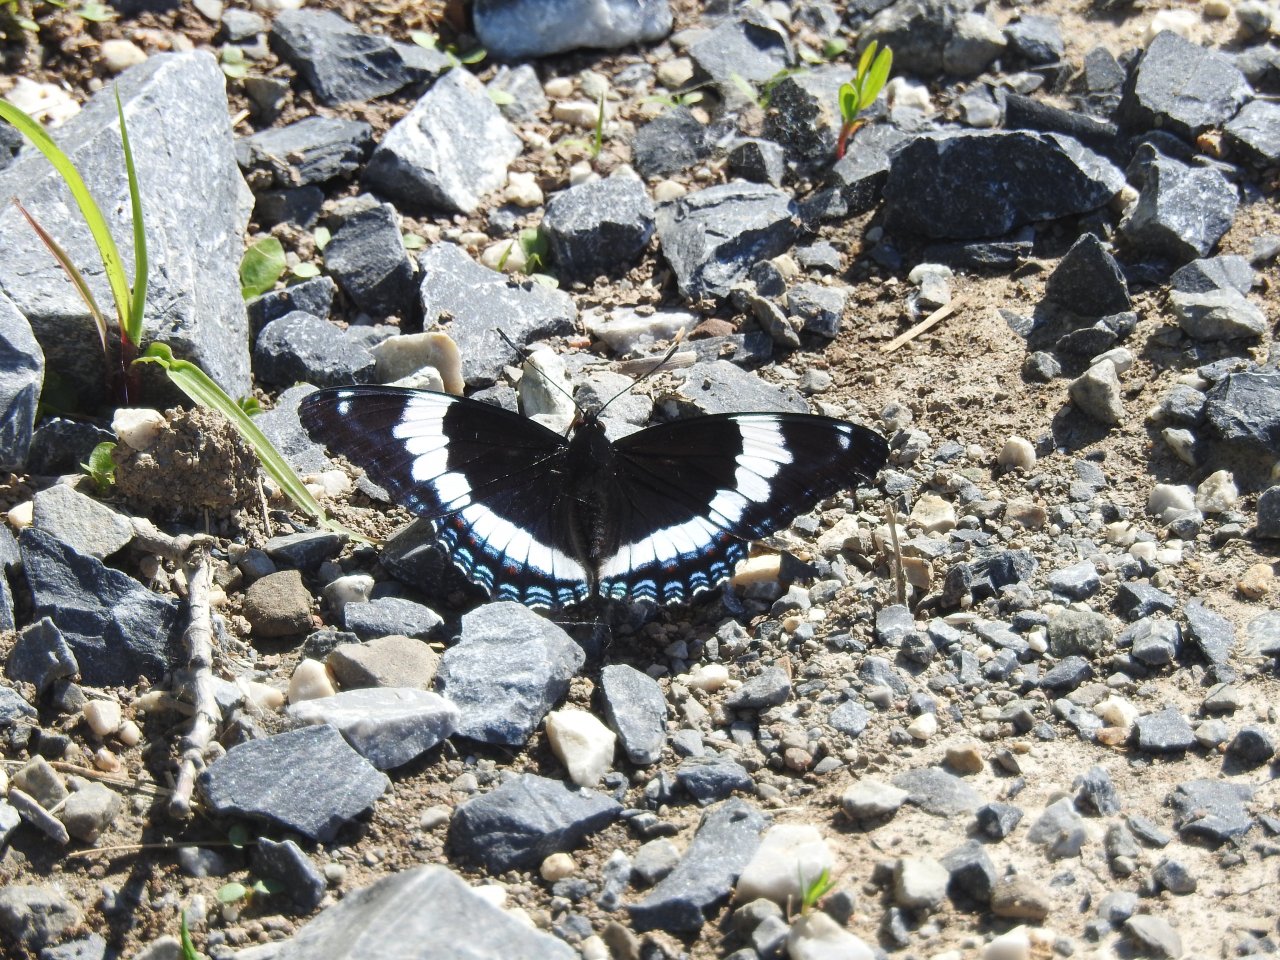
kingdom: Animalia
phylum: Arthropoda
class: Insecta
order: Lepidoptera
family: Nymphalidae
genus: Limenitis
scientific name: Limenitis arthemis
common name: Red-spotted Admiral
